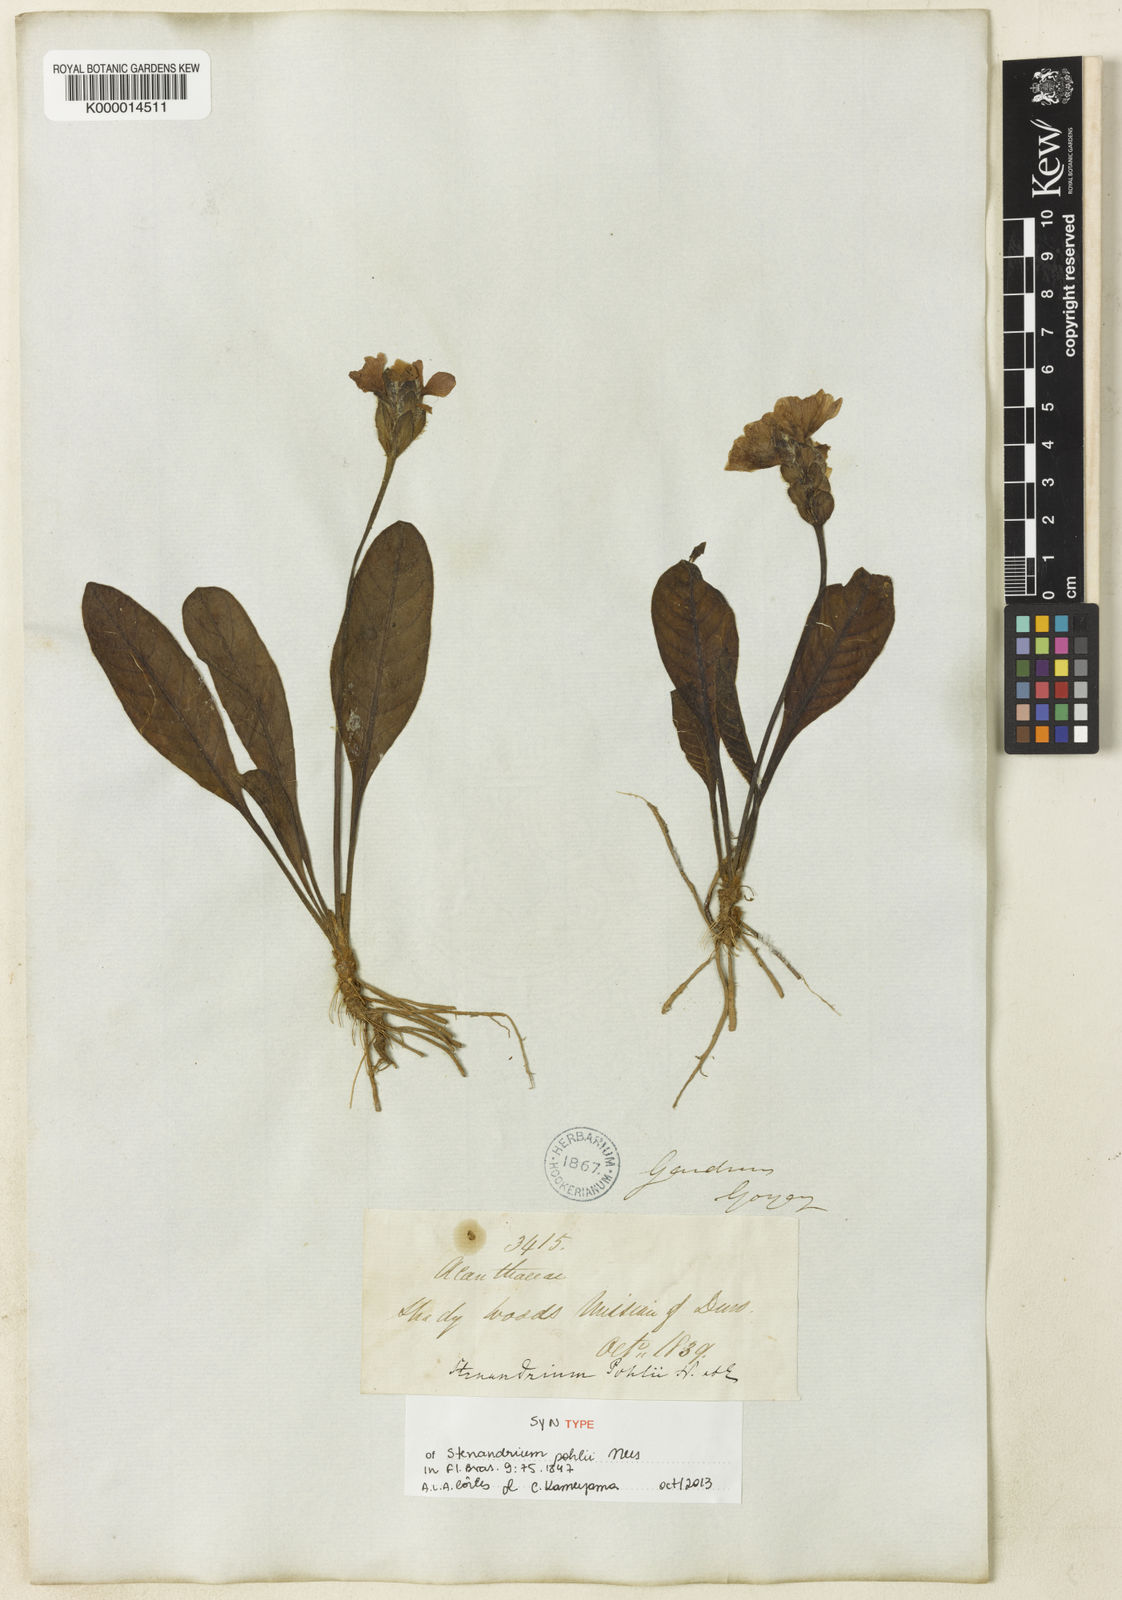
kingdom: Plantae
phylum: Tracheophyta
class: Magnoliopsida
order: Lamiales
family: Acanthaceae
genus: Stenandrium
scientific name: Stenandrium pohlii
